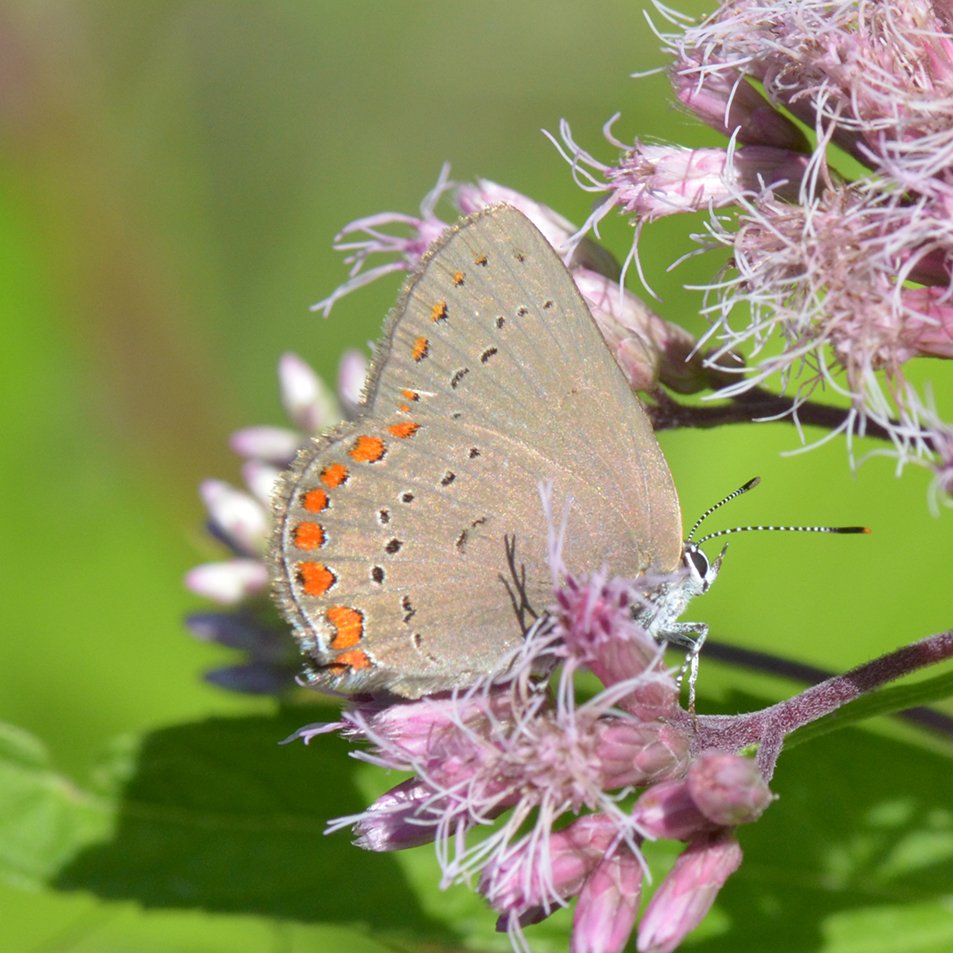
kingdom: Animalia
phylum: Arthropoda
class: Insecta
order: Lepidoptera
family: Lycaenidae
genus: Harkenclenus
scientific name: Harkenclenus titus
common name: Coral Hairstreak
